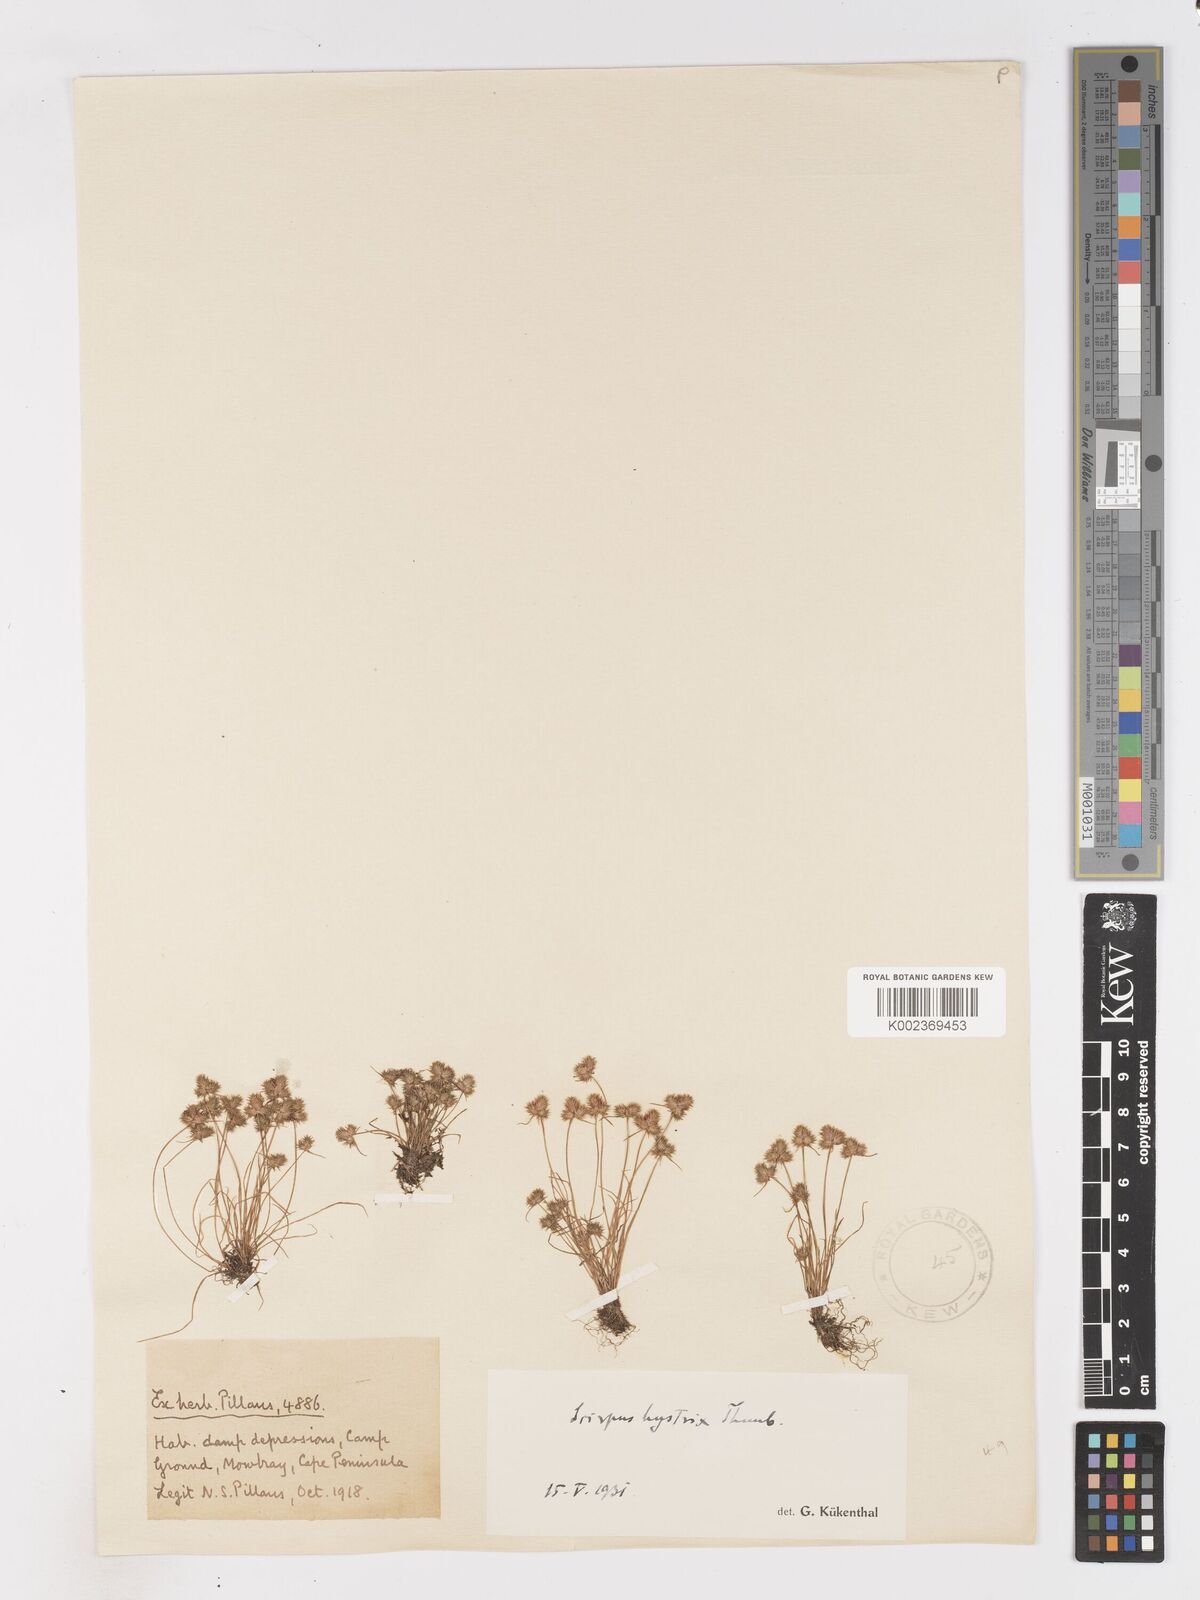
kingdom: Plantae
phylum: Tracheophyta
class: Liliopsida
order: Poales
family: Cyperaceae
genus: Isolepis
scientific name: Isolepis hystrix
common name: Bottlebrush bulrush
